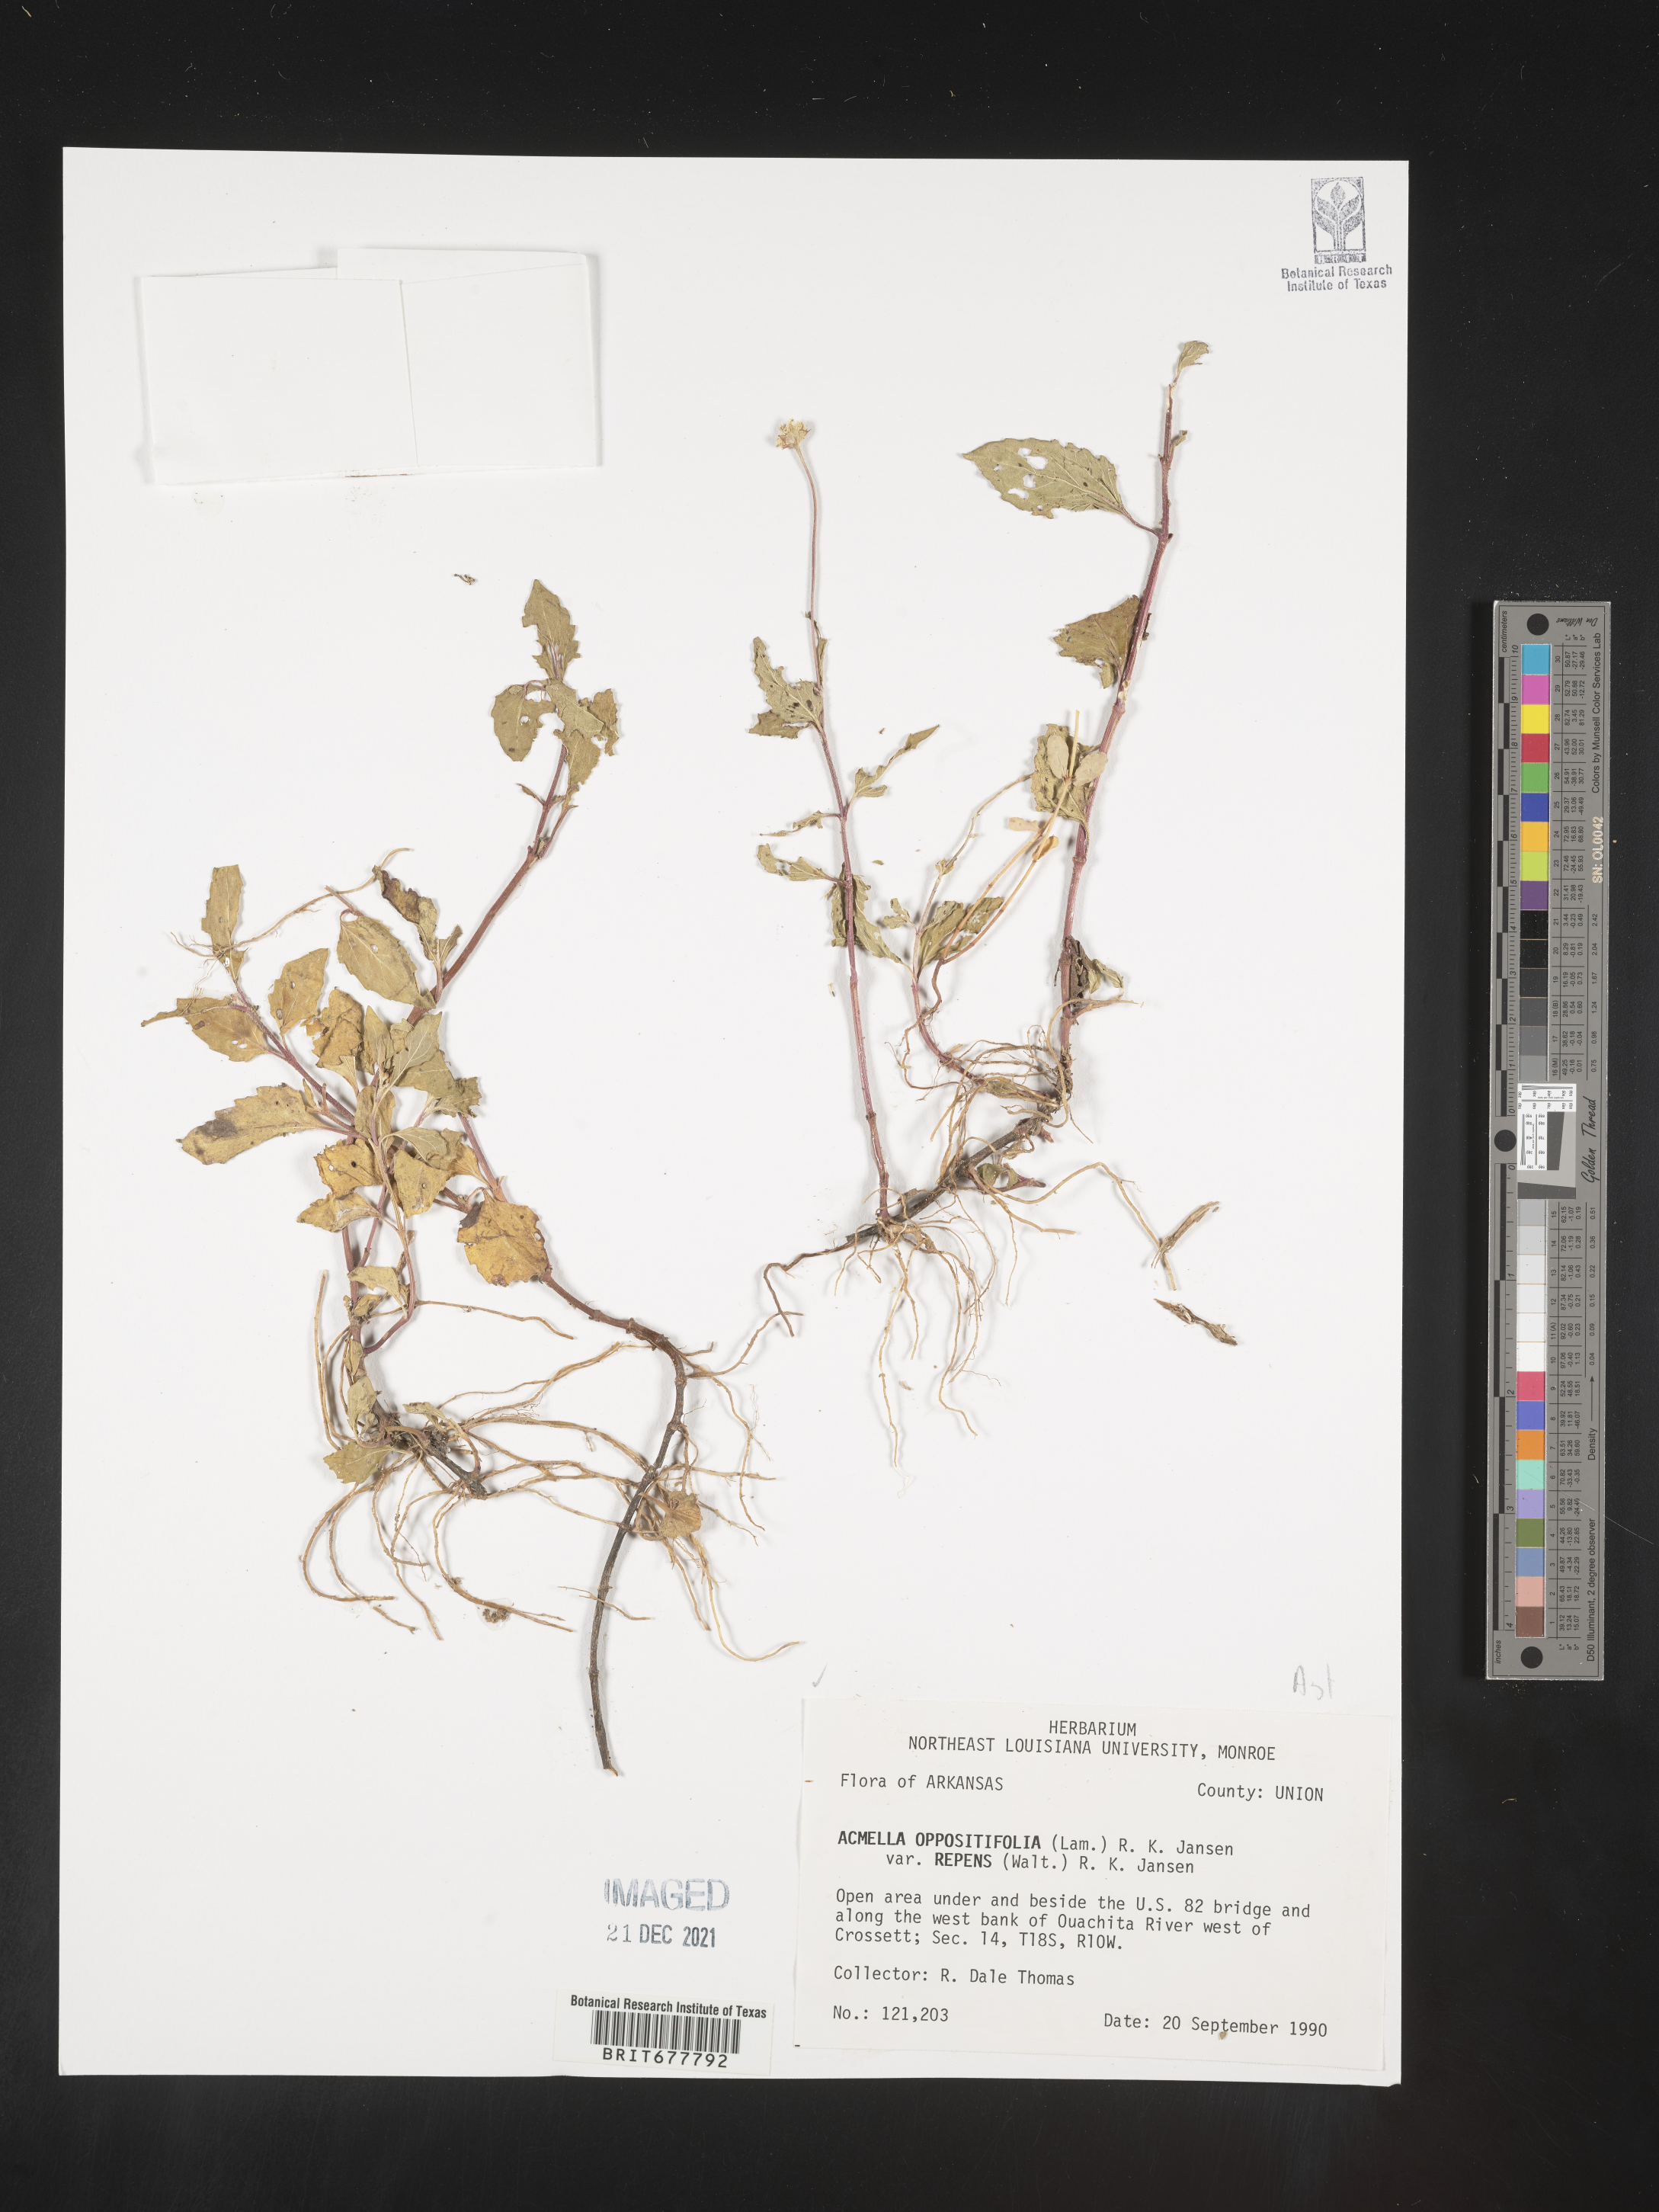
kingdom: Plantae
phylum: Tracheophyta
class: Magnoliopsida
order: Asterales
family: Asteraceae
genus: Spilanthes
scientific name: Spilanthes
